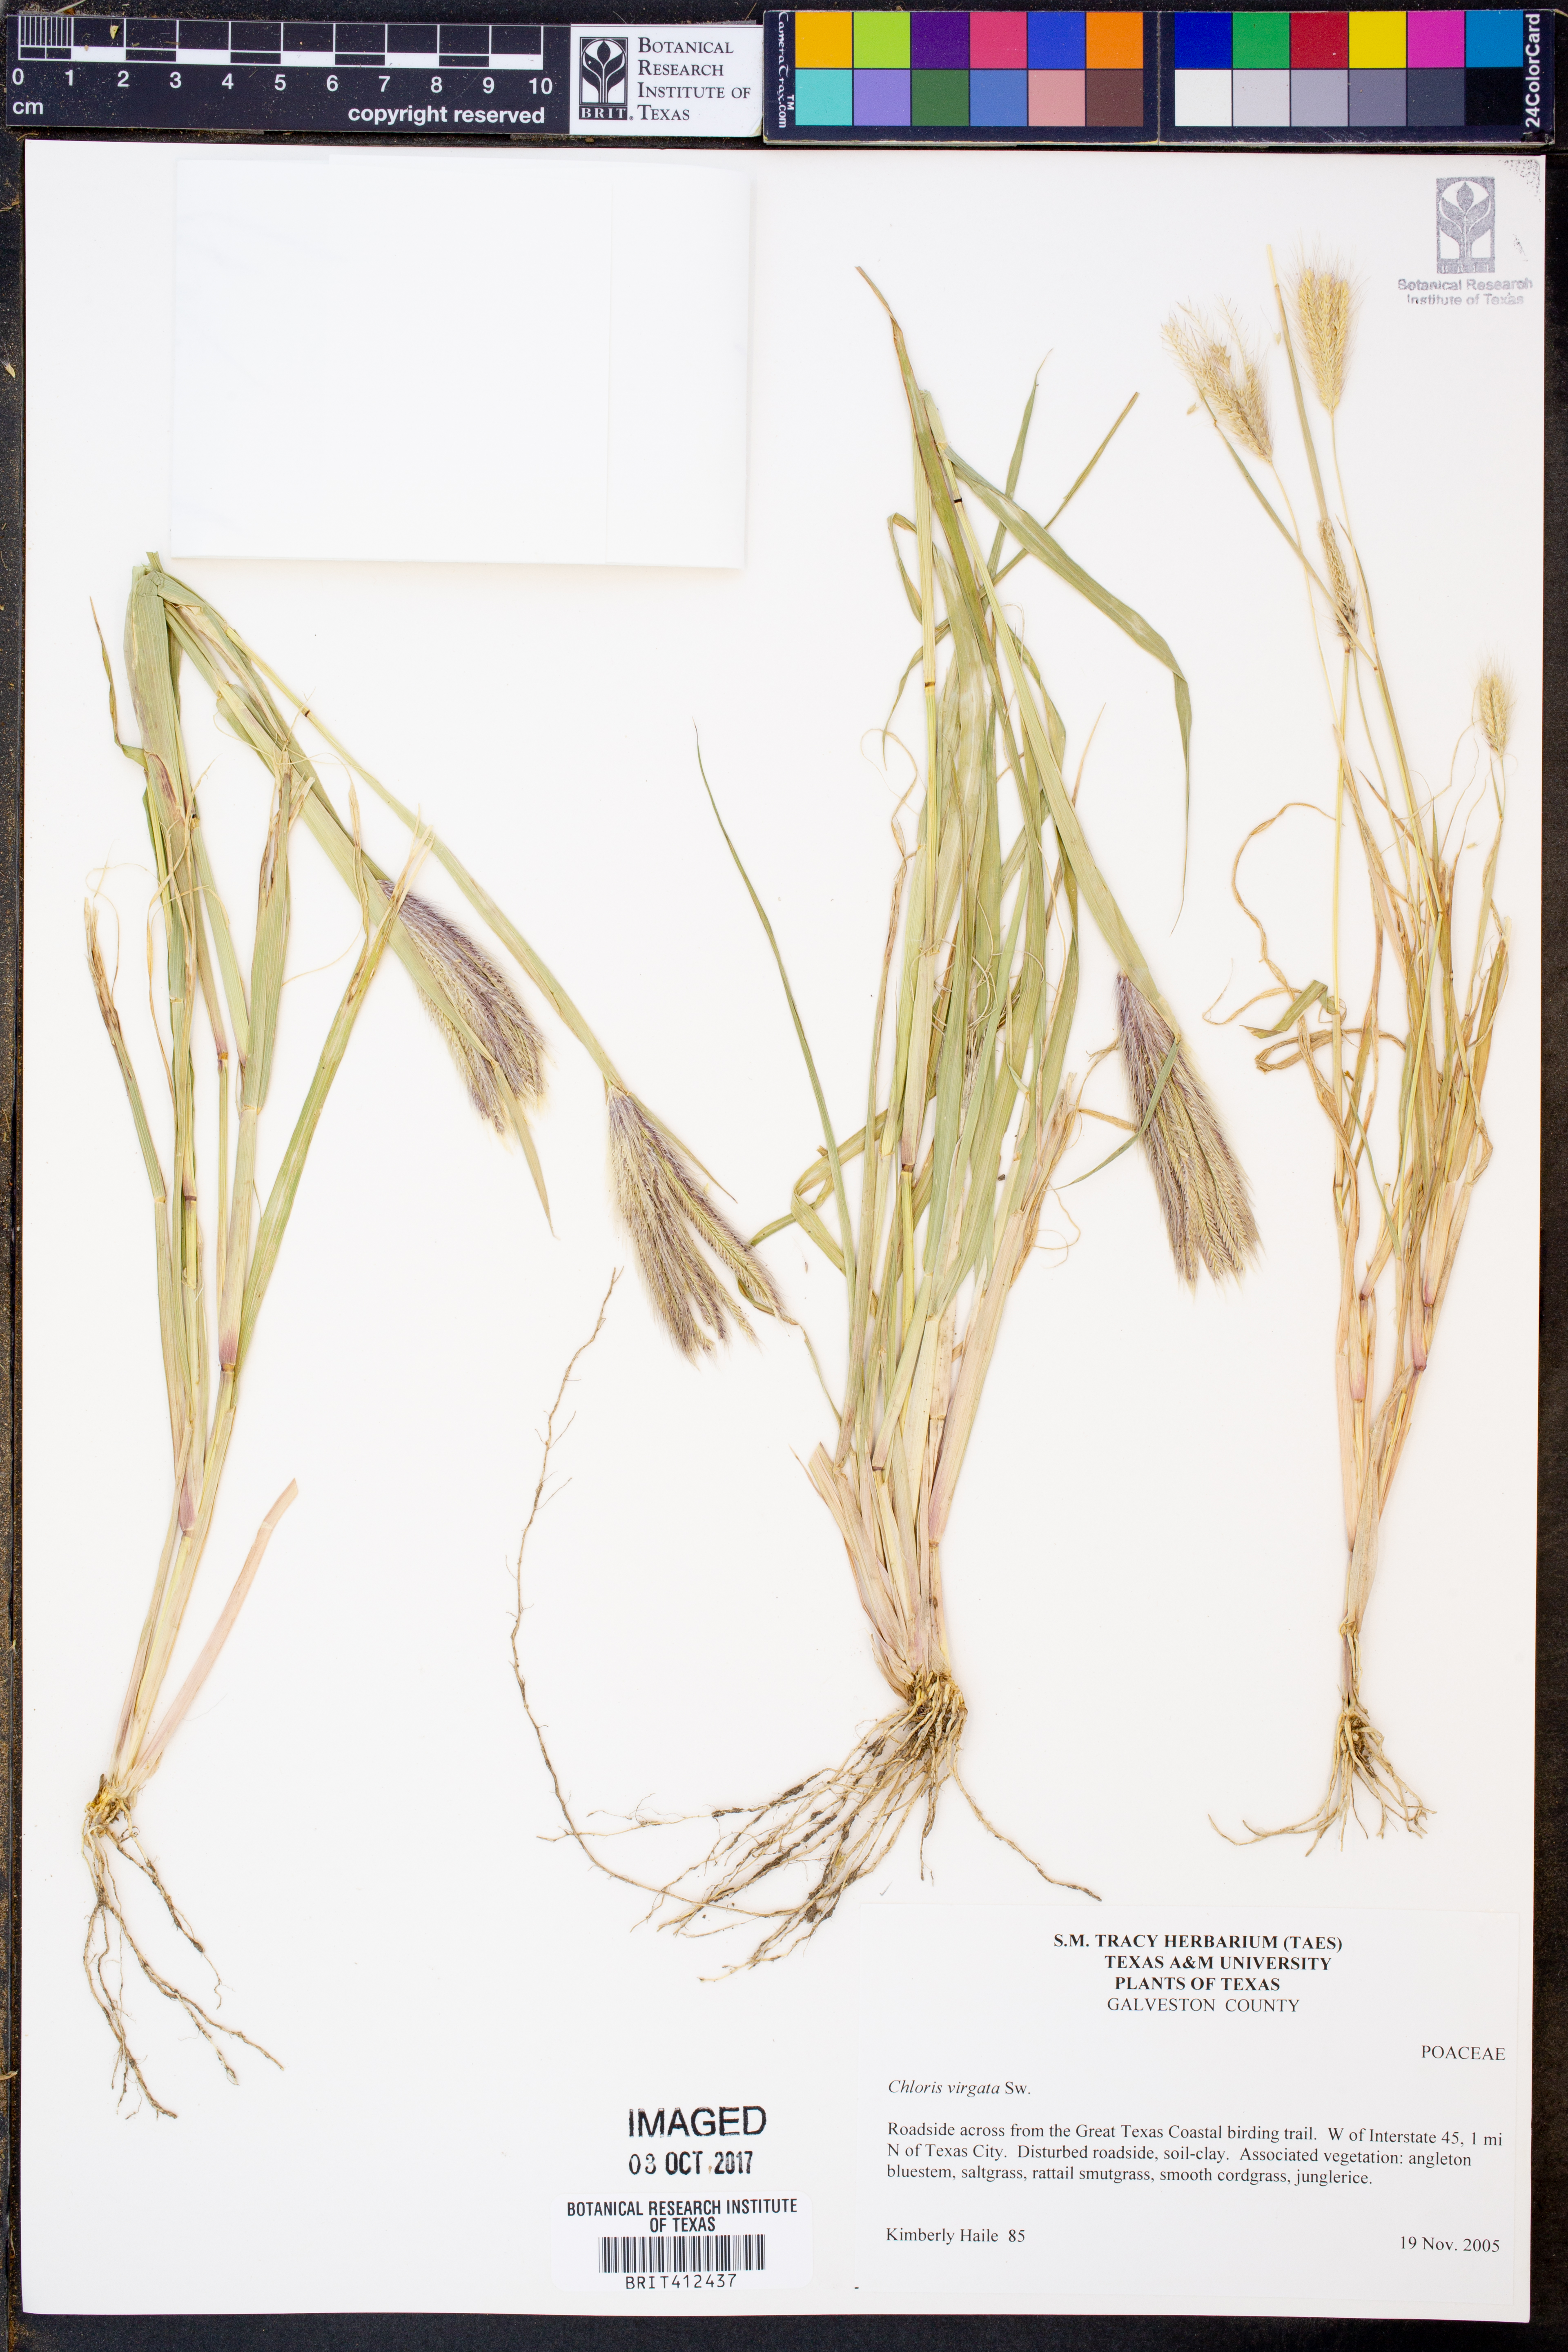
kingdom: Plantae
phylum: Tracheophyta
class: Liliopsida
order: Poales
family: Poaceae
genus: Chloris
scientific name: Chloris virgata
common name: Feathery rhodes-grass
